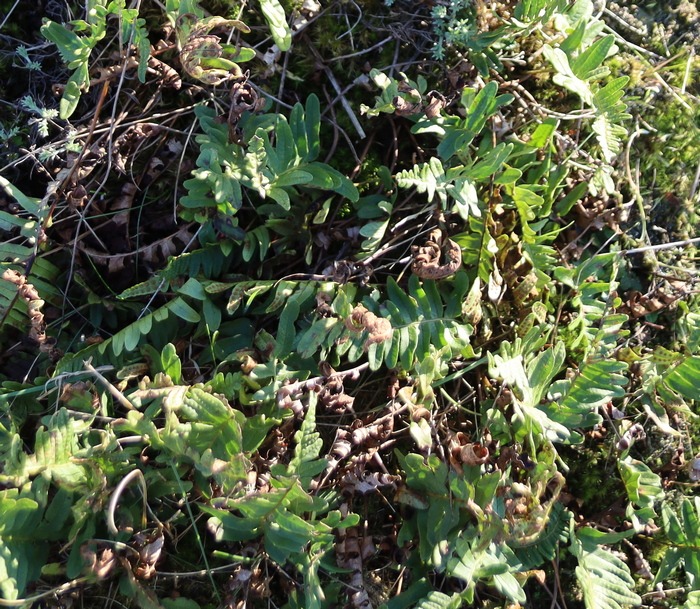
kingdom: Plantae
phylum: Tracheophyta
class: Polypodiopsida
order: Polypodiales
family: Polypodiaceae
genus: Polypodium
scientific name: Polypodium vulgare
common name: Almindelig engelsød
